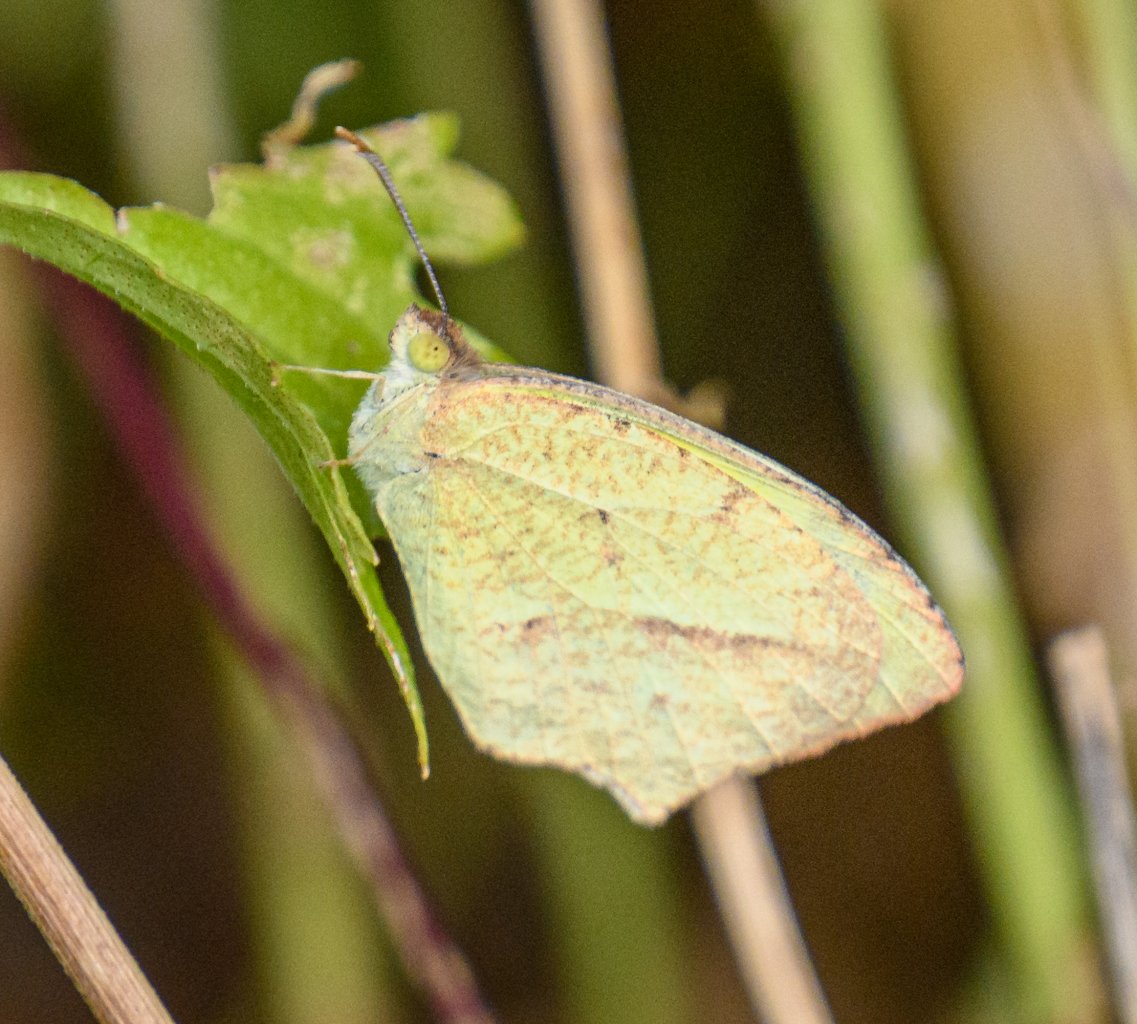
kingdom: Animalia
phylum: Arthropoda
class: Insecta
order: Lepidoptera
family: Pieridae
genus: Eurema
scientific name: Eurema mexicana
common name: Mexican Yellow
